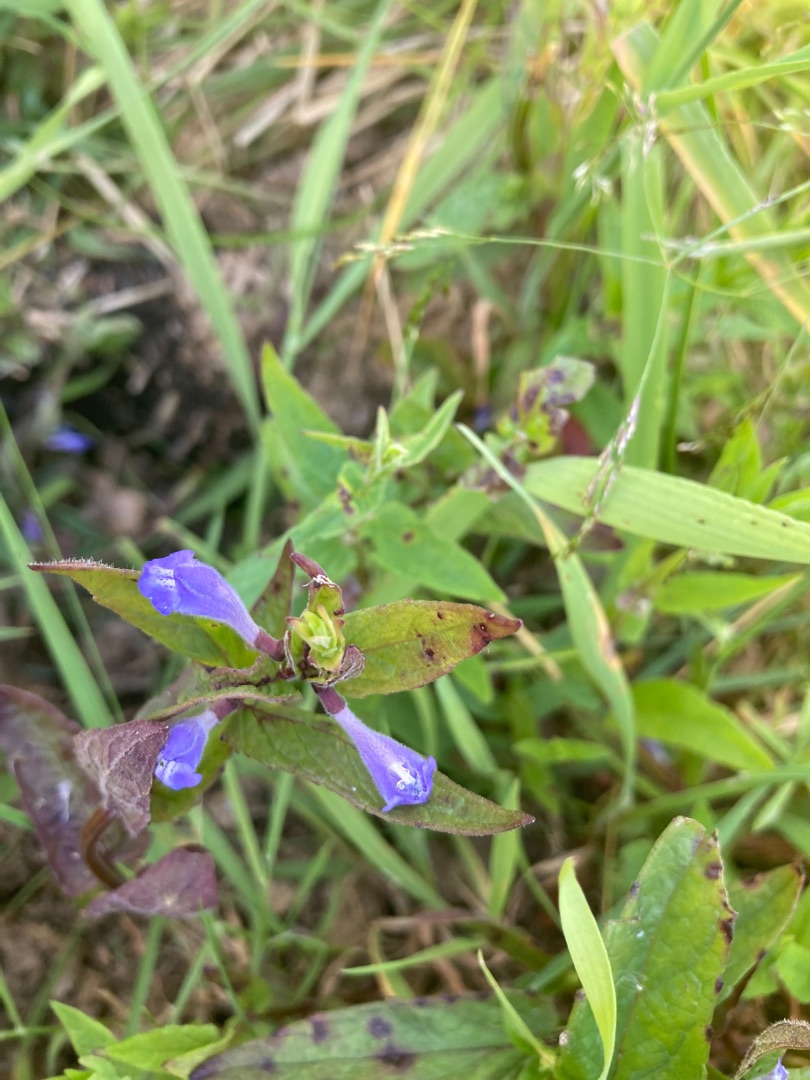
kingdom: Plantae
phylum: Tracheophyta
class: Magnoliopsida
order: Lamiales
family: Lamiaceae
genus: Scutellaria
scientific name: Scutellaria galericulata
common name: Almindelig skjolddrager
